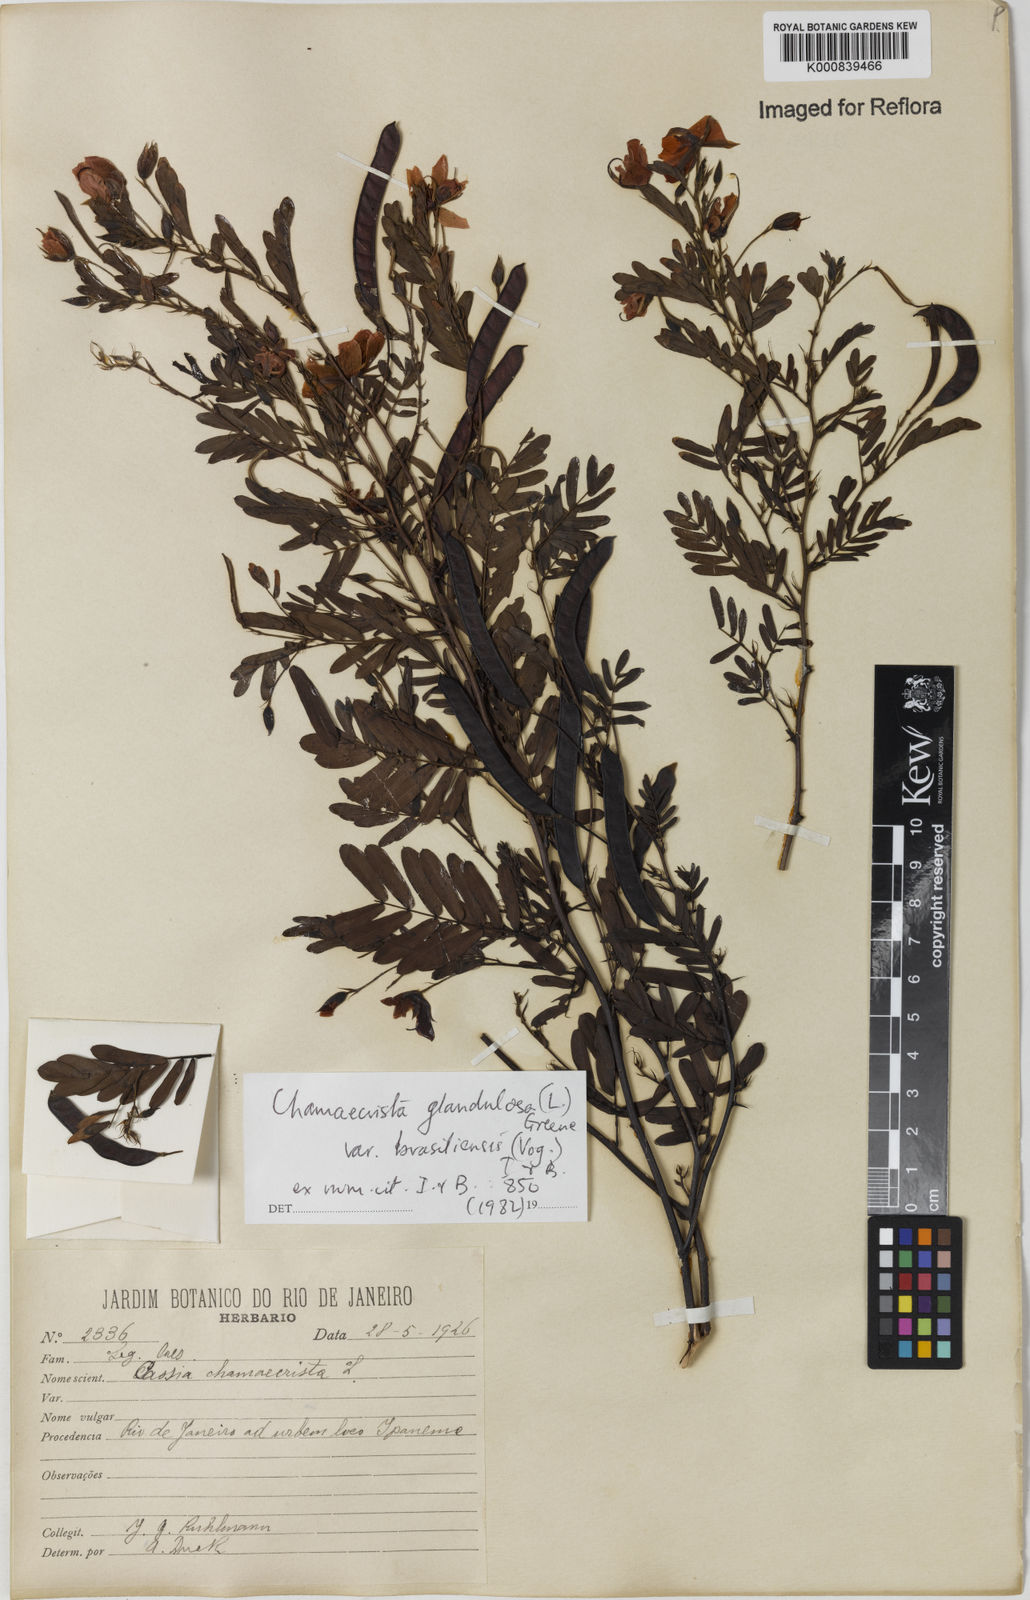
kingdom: Plantae
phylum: Tracheophyta
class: Magnoliopsida
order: Fabales
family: Fabaceae
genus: Chamaecrista
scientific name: Chamaecrista glandulosa
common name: Wild peas
